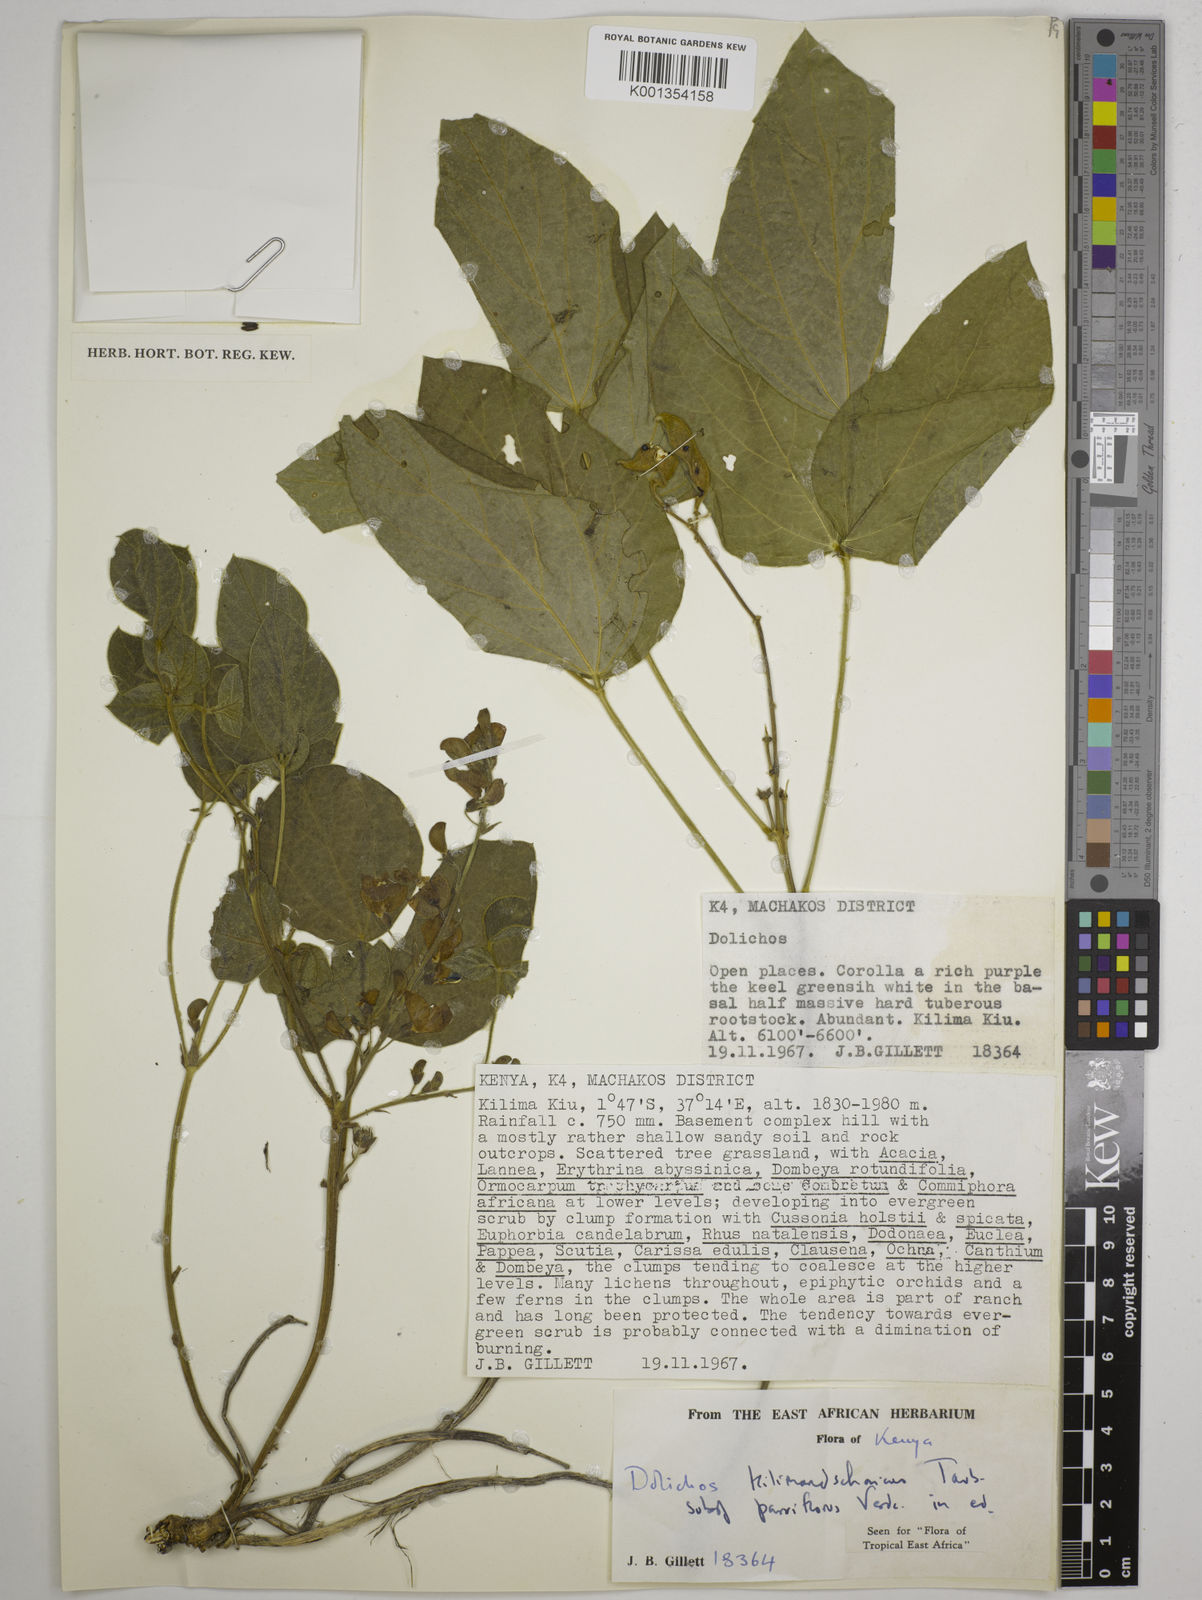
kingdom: Plantae
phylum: Tracheophyta
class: Magnoliopsida
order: Fabales
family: Fabaceae
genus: Dolichos
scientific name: Dolichos kilimandscharicus
